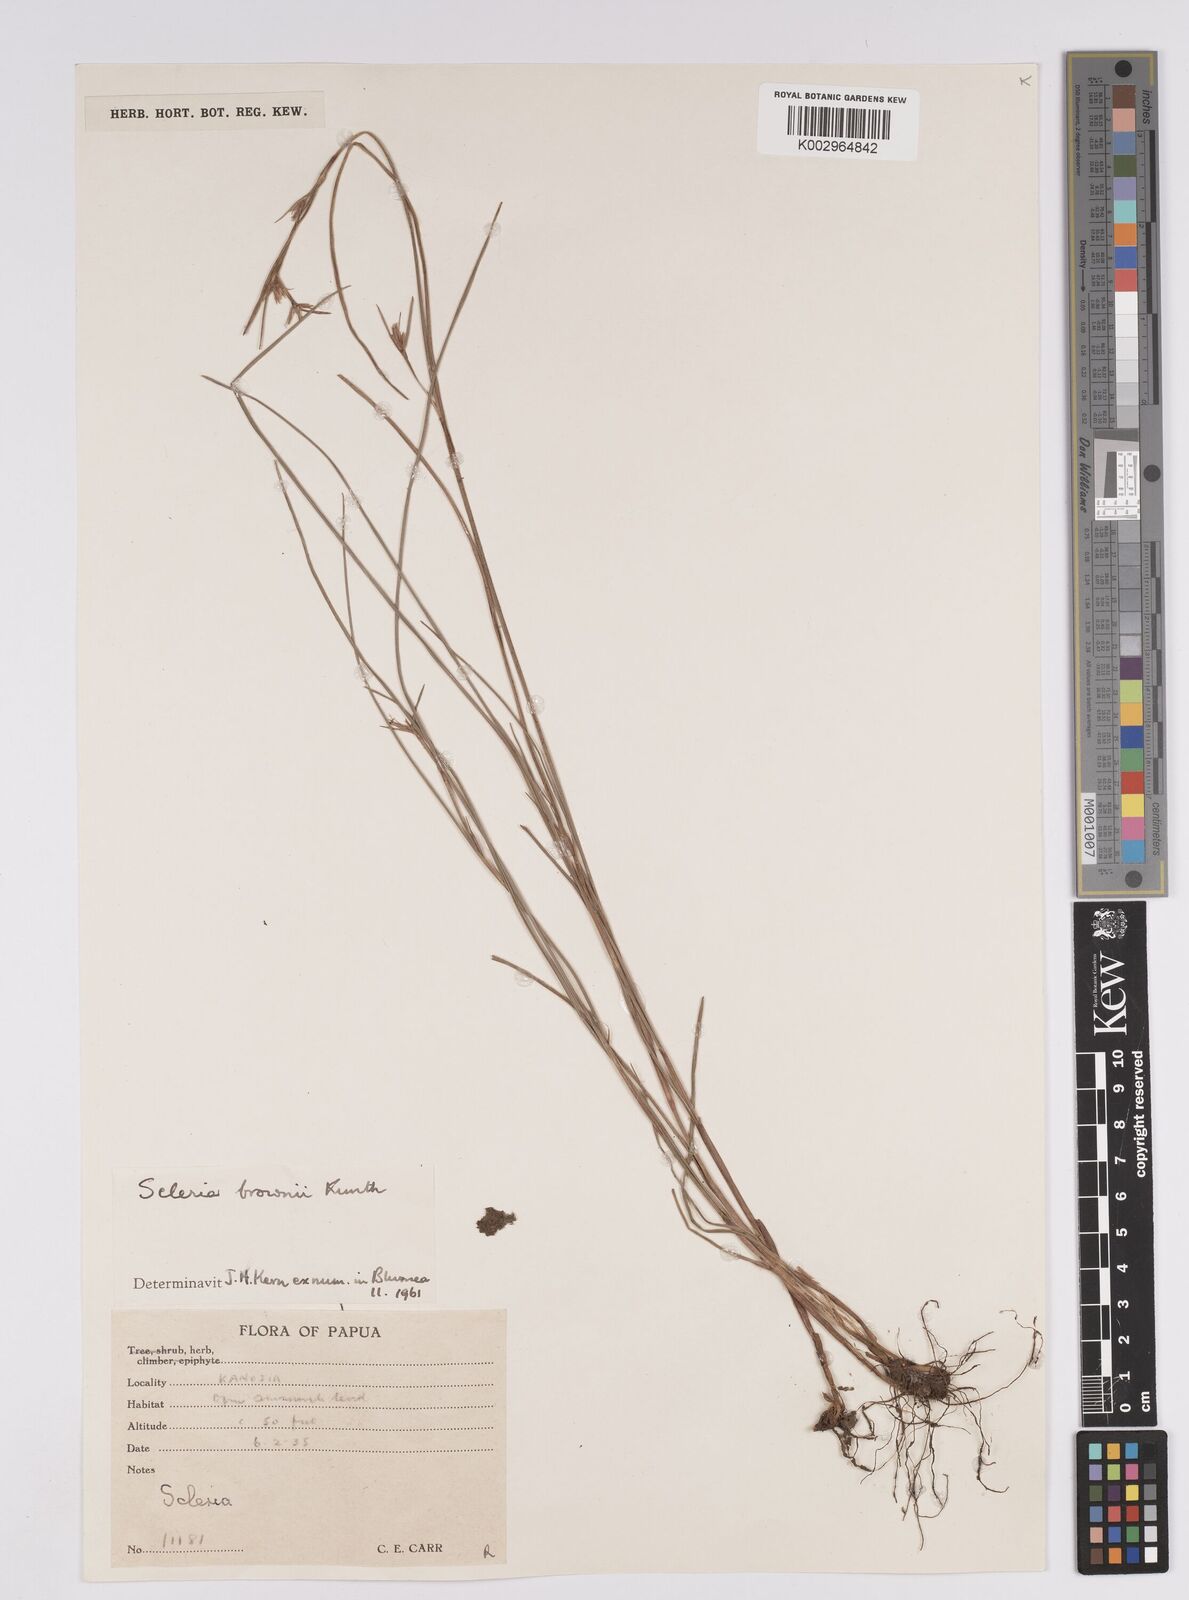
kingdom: Plantae
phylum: Tracheophyta
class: Liliopsida
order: Poales
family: Cyperaceae
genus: Scleria
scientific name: Scleria brownii
